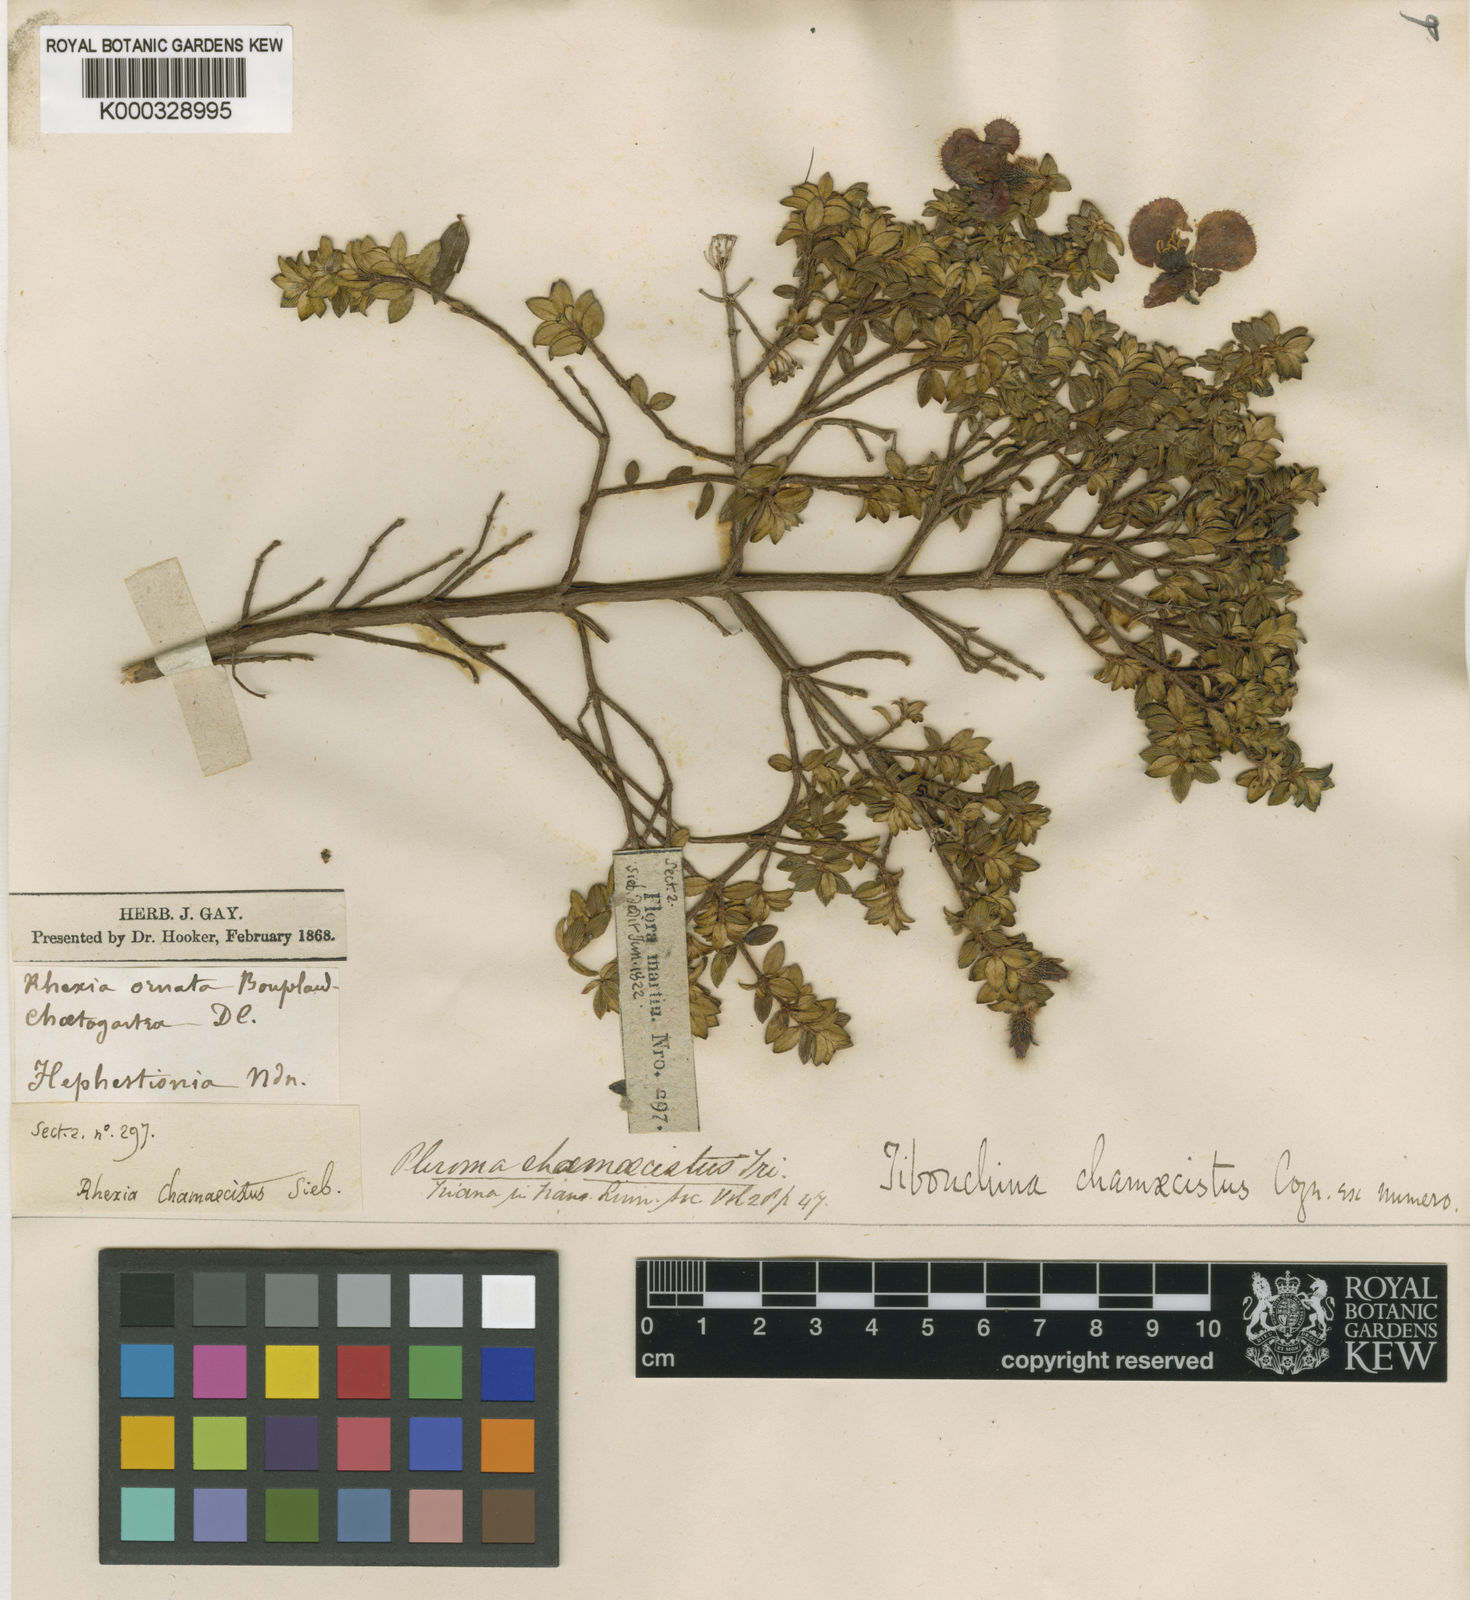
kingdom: Plantae
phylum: Tracheophyta
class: Magnoliopsida
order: Myrtales
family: Melastomataceae
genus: Chaetogastra
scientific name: Chaetogastra chamaecistus
